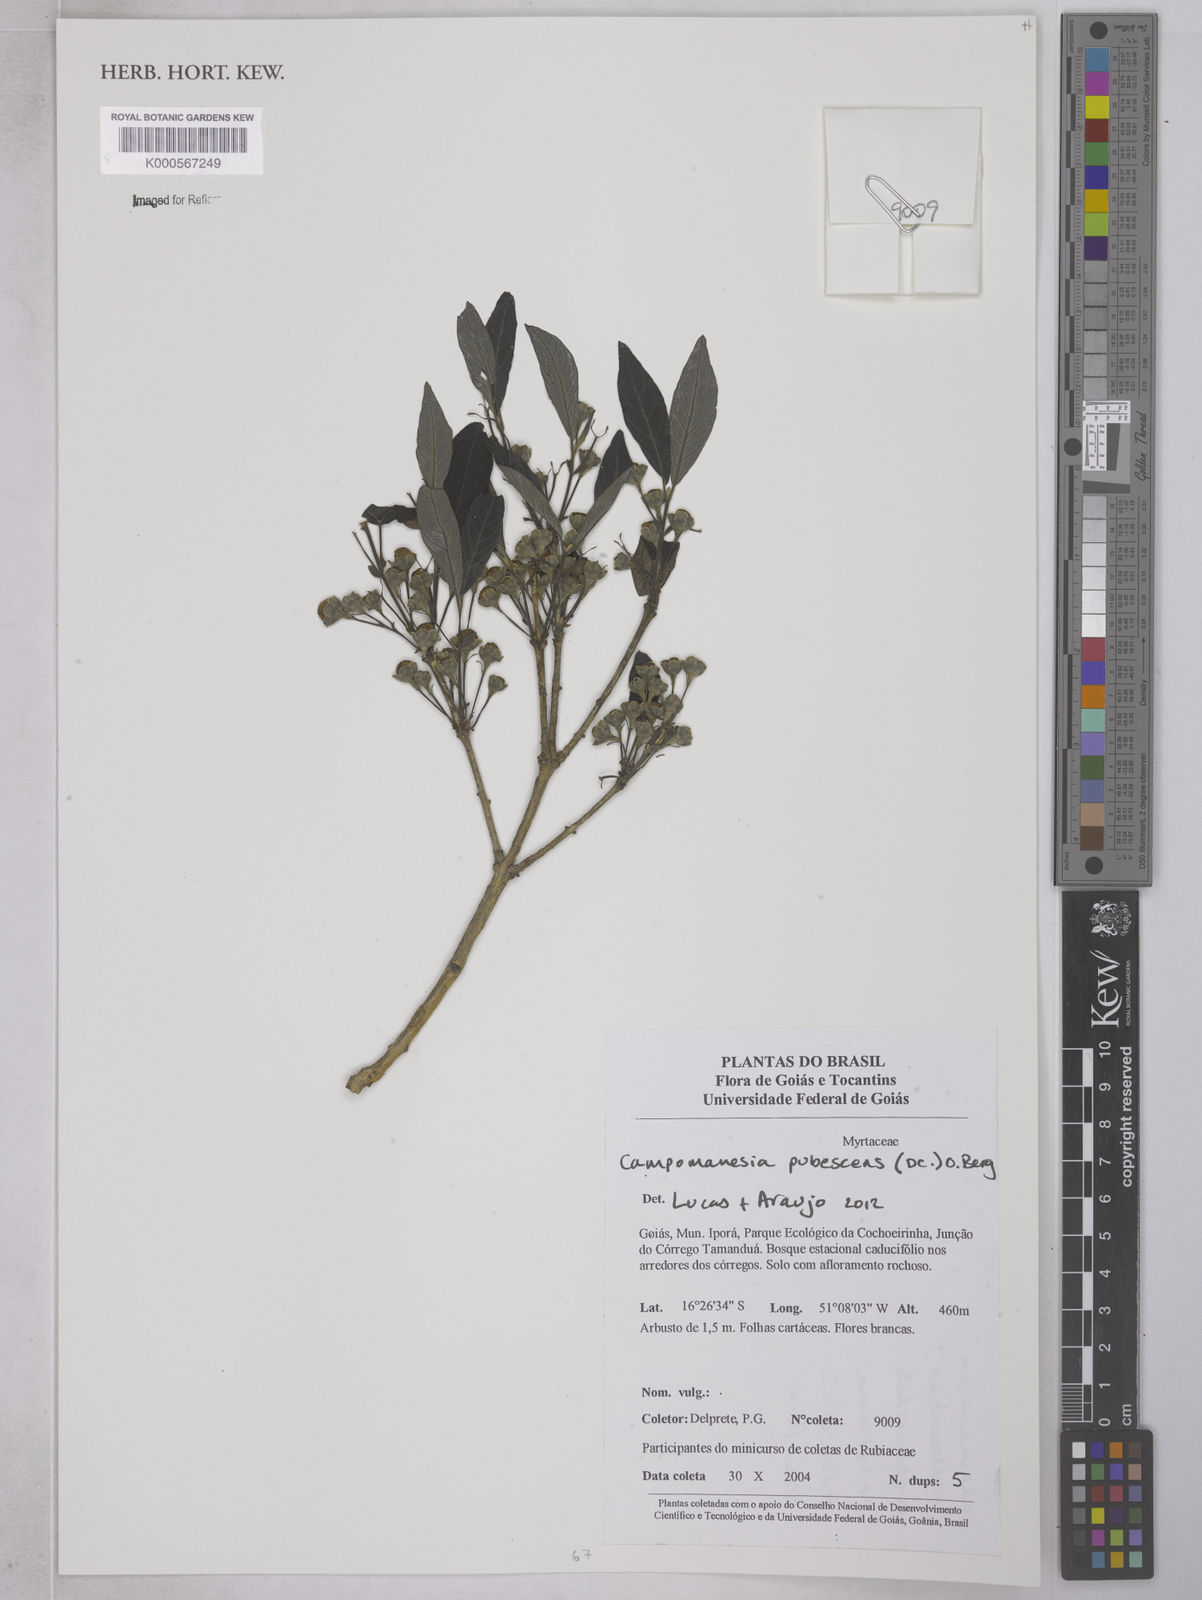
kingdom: Plantae
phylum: Tracheophyta
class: Magnoliopsida
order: Myrtales
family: Myrtaceae
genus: Campomanesia
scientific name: Campomanesia pubescens
